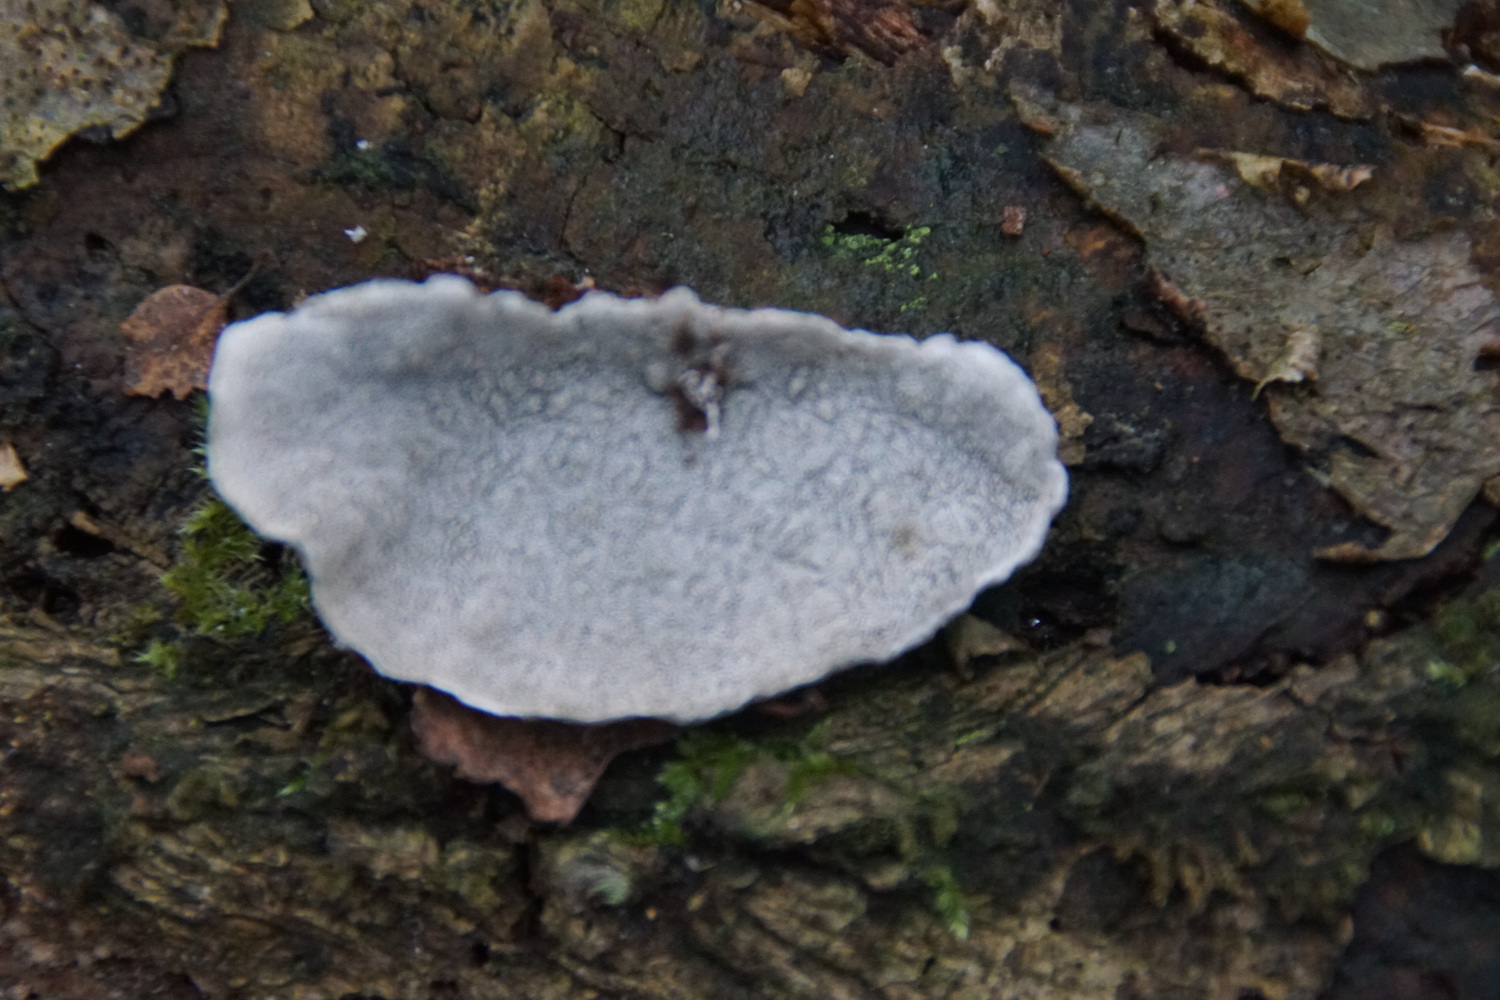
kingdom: Fungi
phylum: Basidiomycota
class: Agaricomycetes
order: Polyporales
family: Polyporaceae
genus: Cyanosporus
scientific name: Cyanosporus alni
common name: blegblå kødporesvamp
